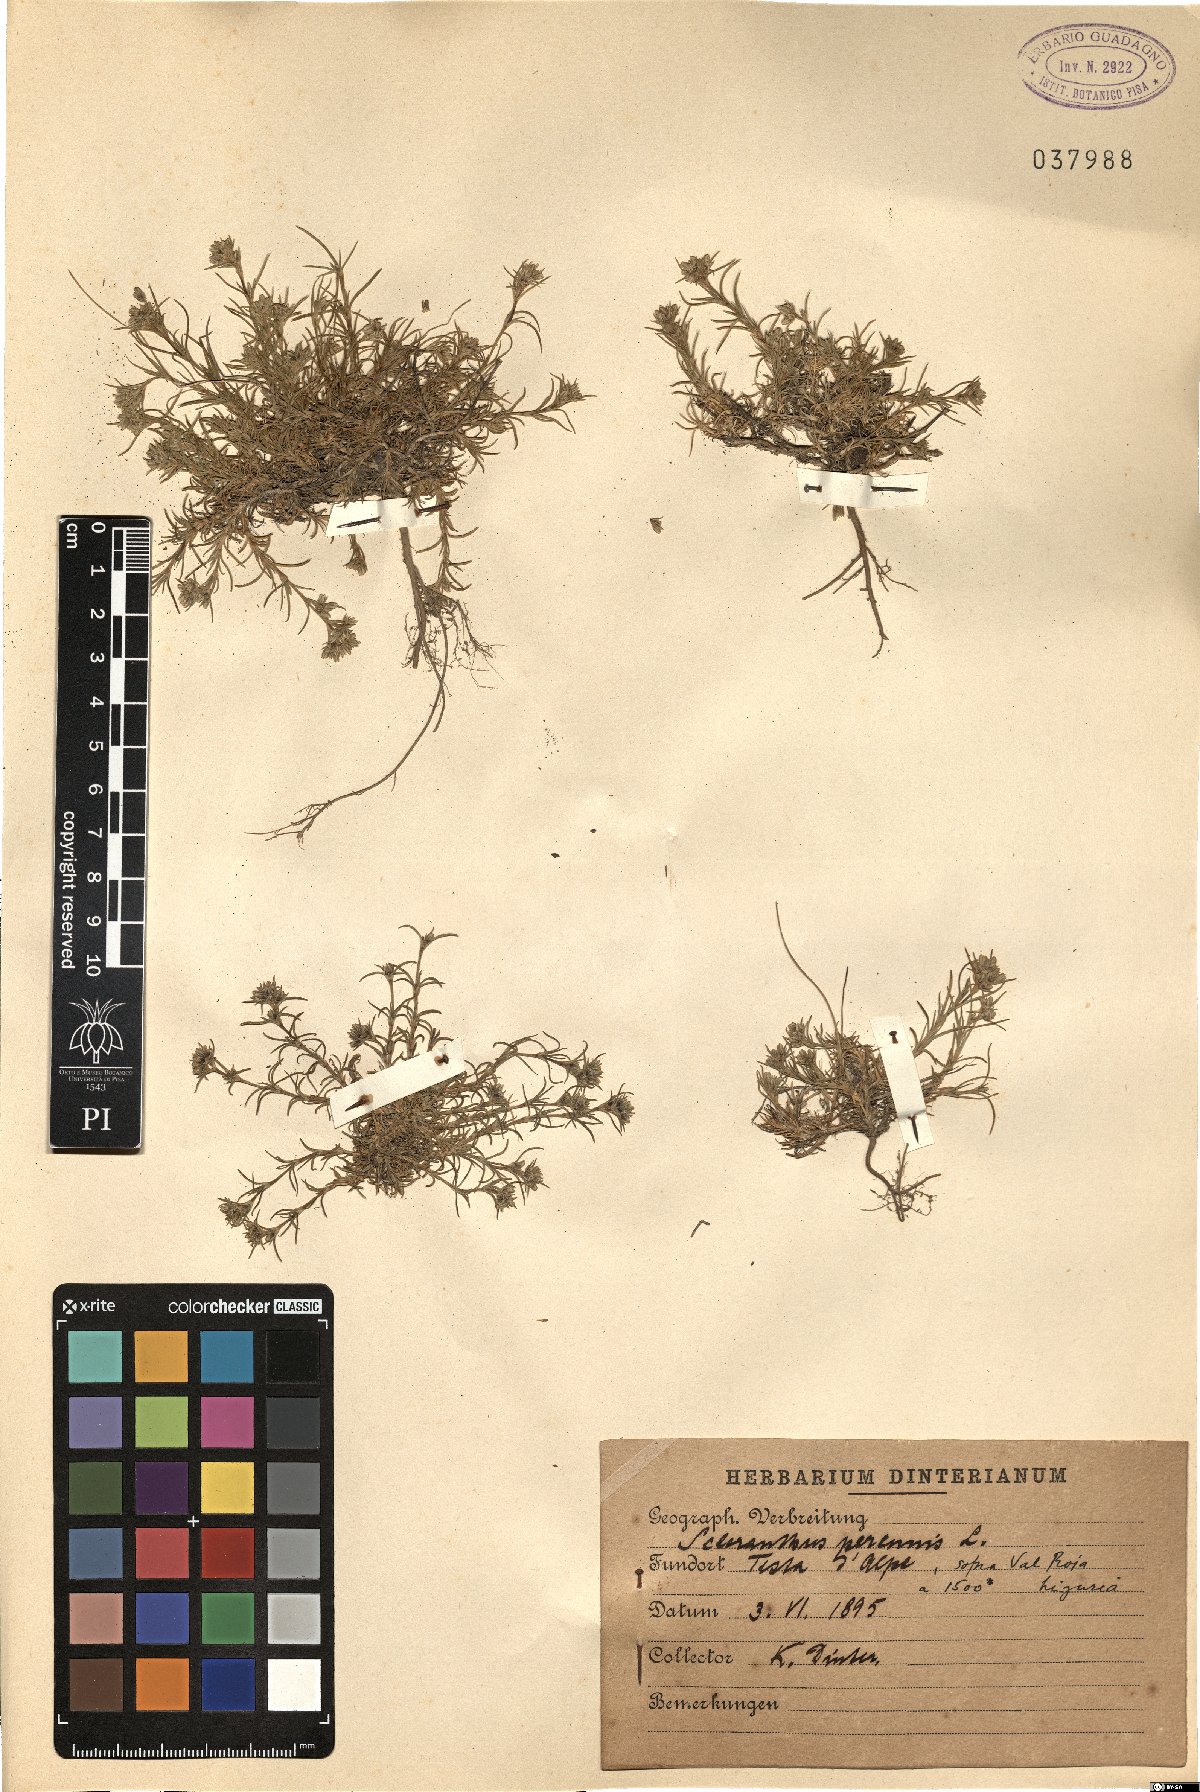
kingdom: Plantae
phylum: Tracheophyta
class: Magnoliopsida
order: Caryophyllales
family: Caryophyllaceae
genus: Scleranthus
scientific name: Scleranthus perennis
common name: Perennial knawel
